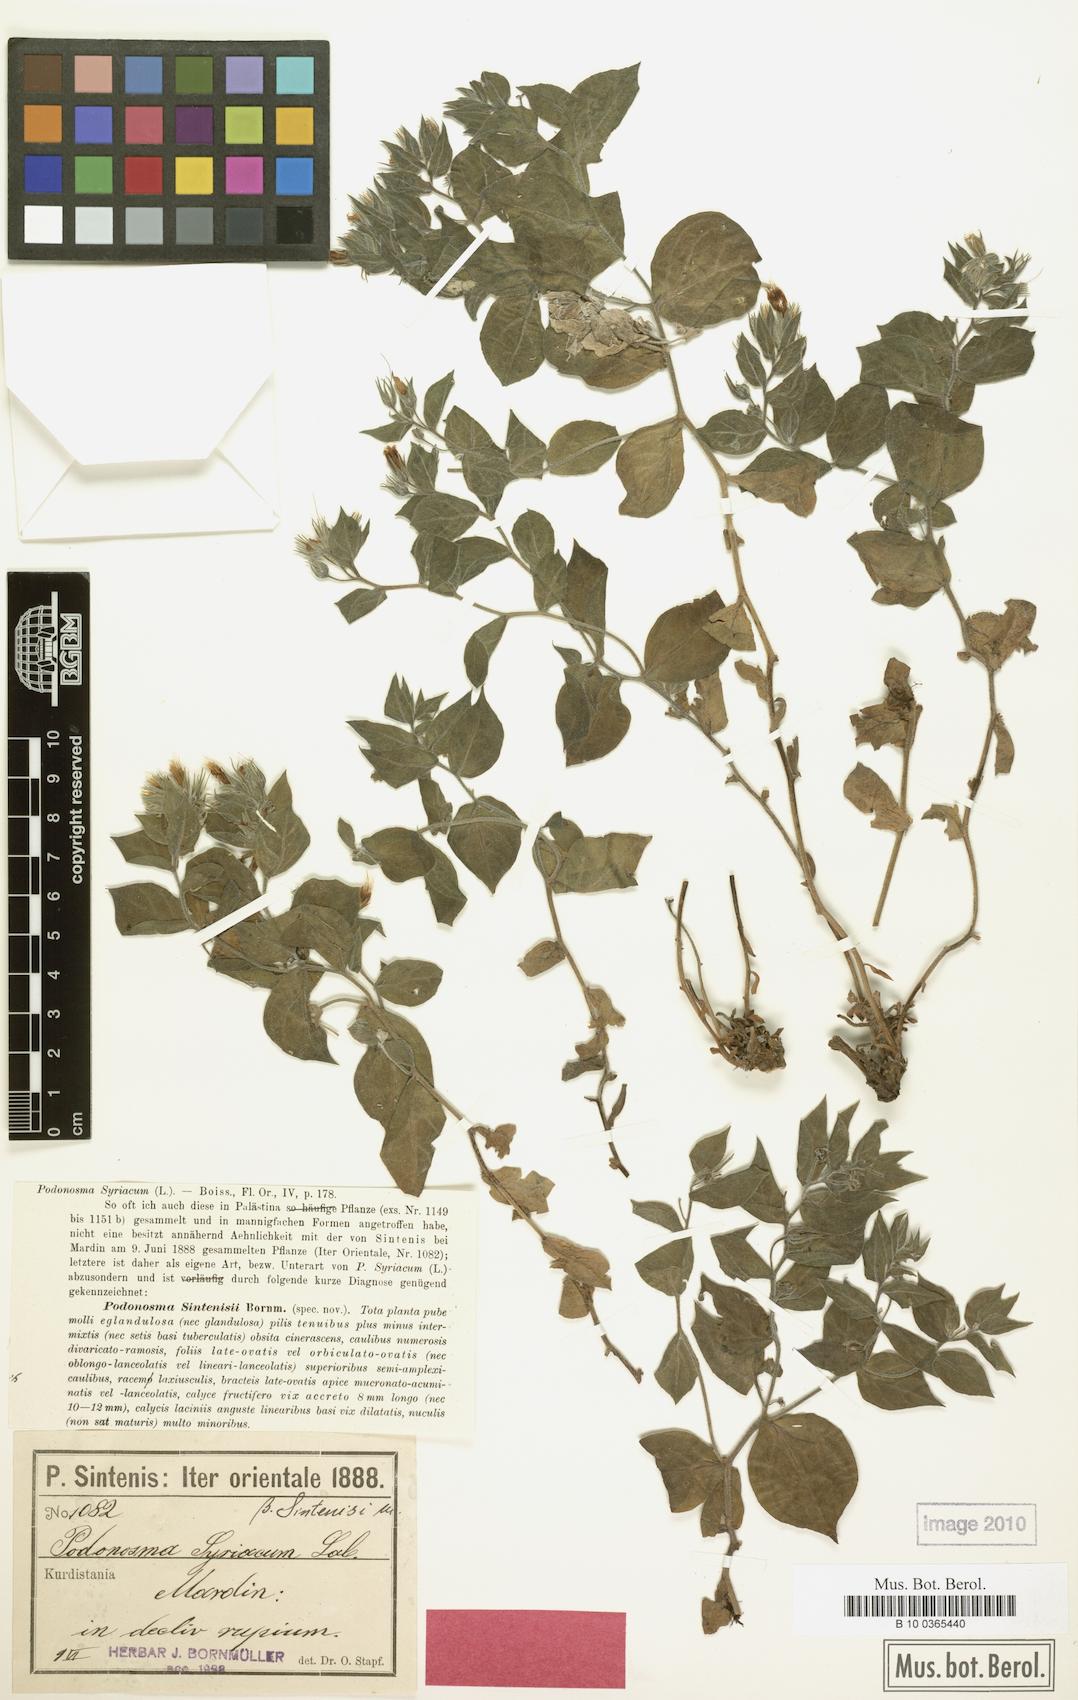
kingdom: Plantae
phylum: Tracheophyta
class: Magnoliopsida
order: Boraginales
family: Boraginaceae
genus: Podonosma
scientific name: Podonosma orientalis
